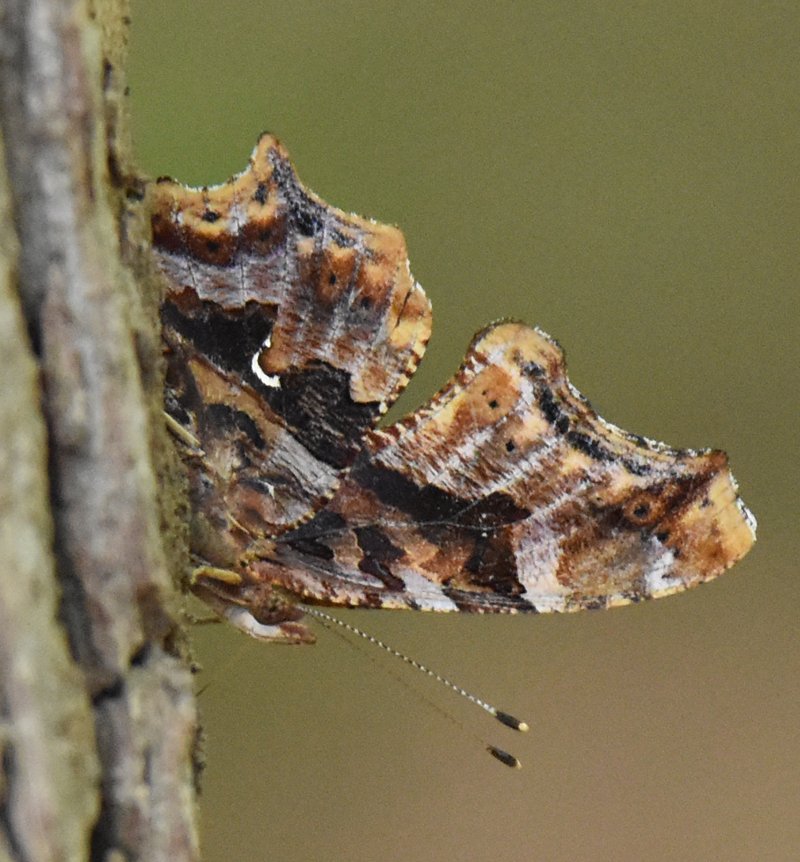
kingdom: Animalia
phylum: Arthropoda
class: Insecta
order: Lepidoptera
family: Nymphalidae
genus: Polygonia
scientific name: Polygonia comma
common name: Eastern Comma
